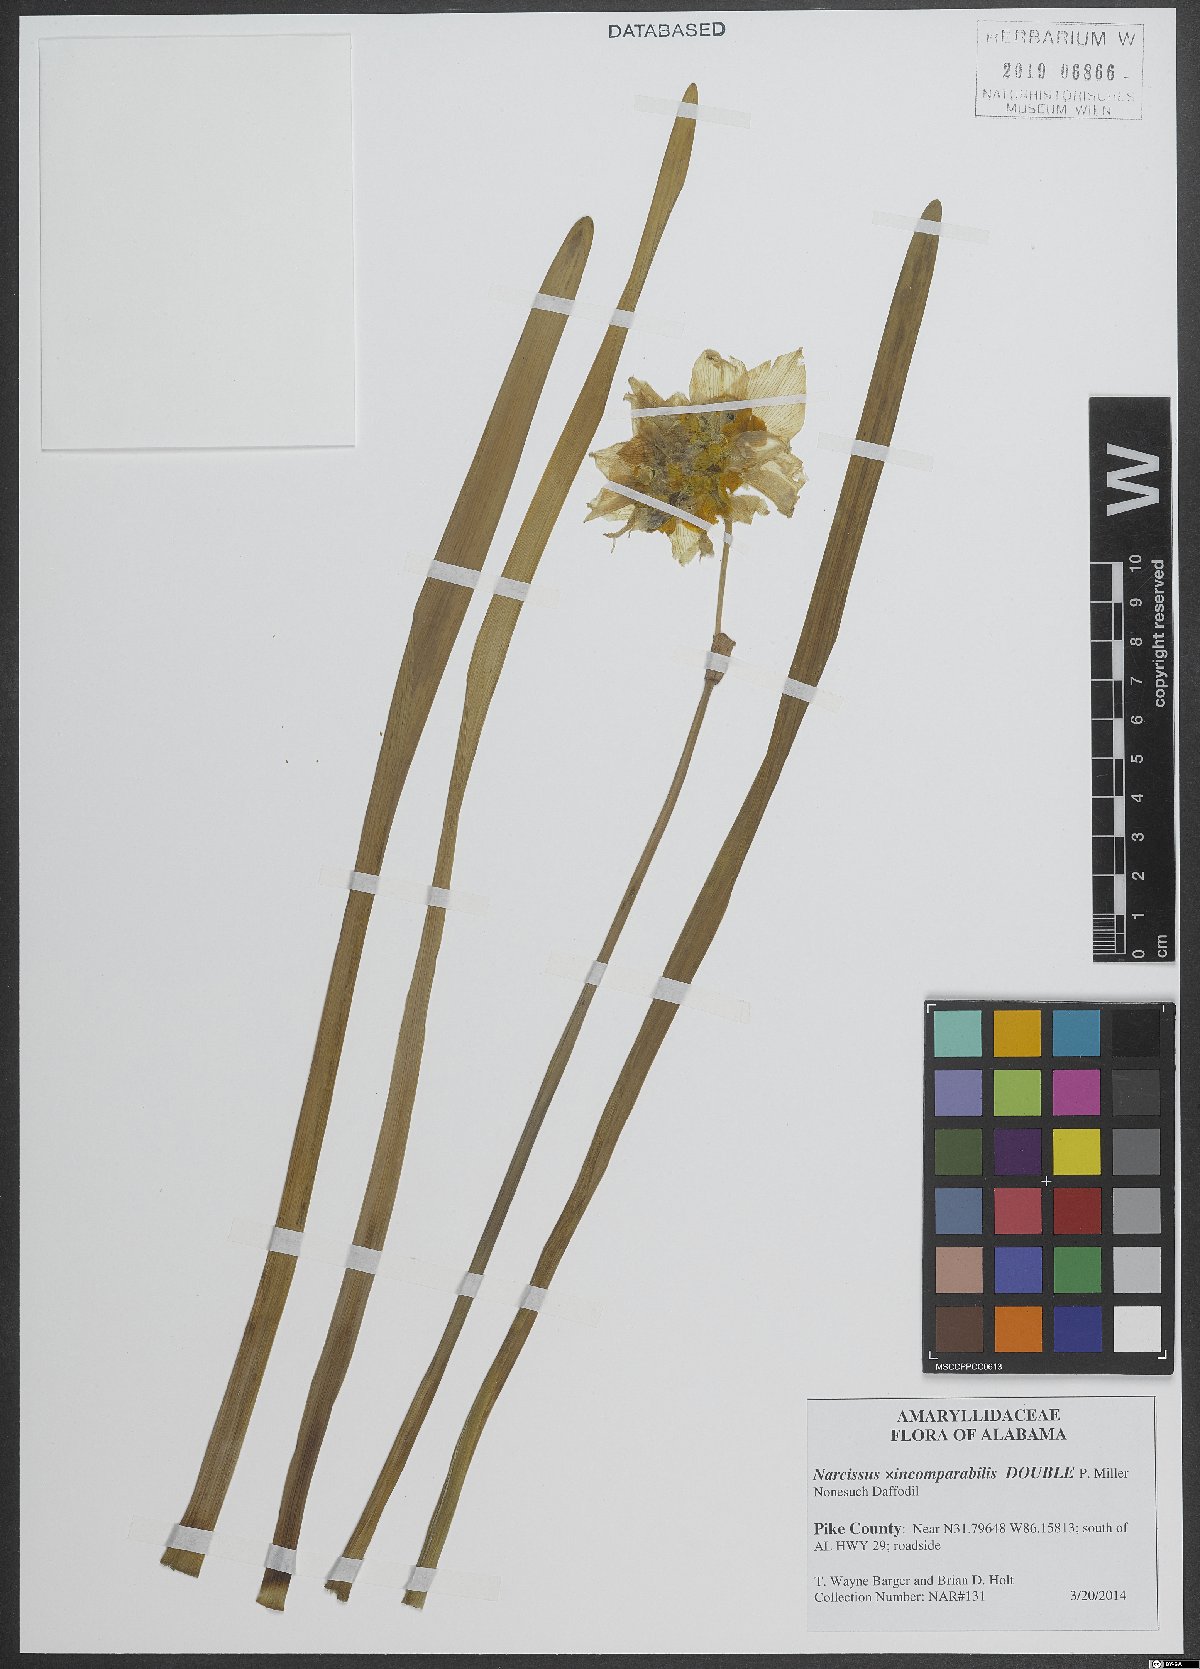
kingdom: Plantae
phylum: Tracheophyta
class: Liliopsida
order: Asparagales
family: Amaryllidaceae
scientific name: Amaryllidaceae
